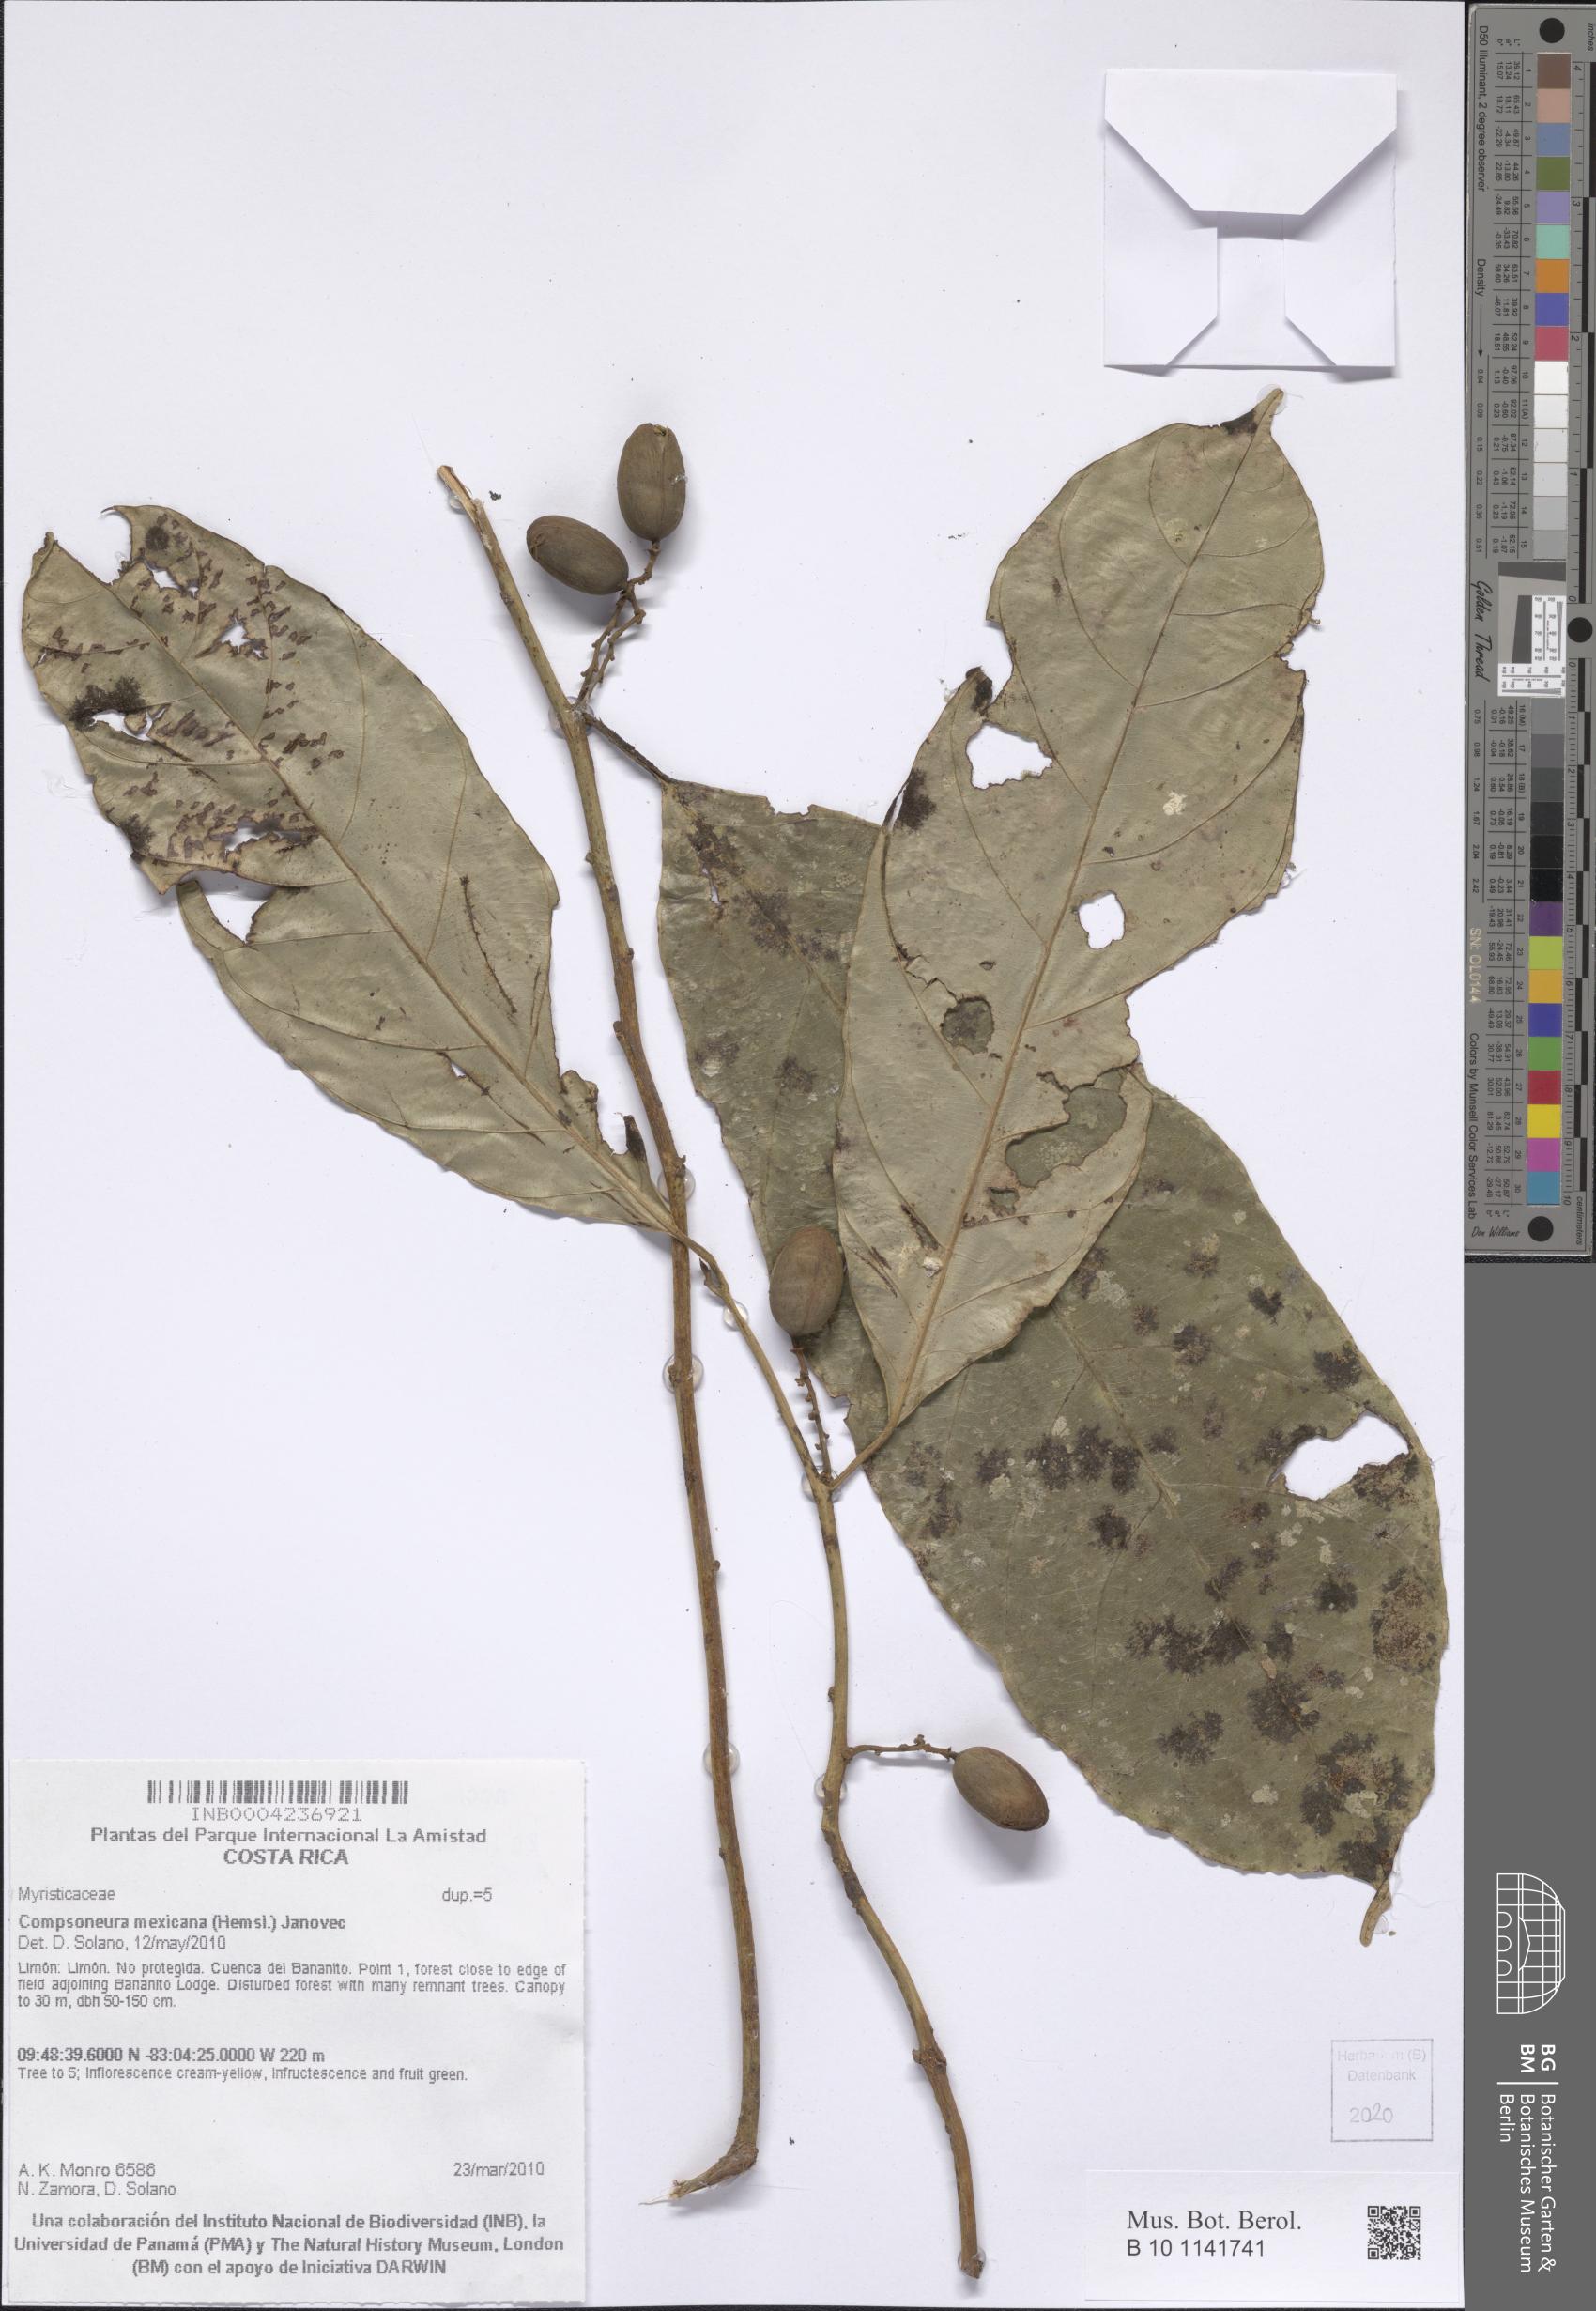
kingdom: Plantae
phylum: Tracheophyta
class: Magnoliopsida
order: Magnoliales
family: Myristicaceae
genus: Compsoneura
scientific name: Compsoneura mexicana
